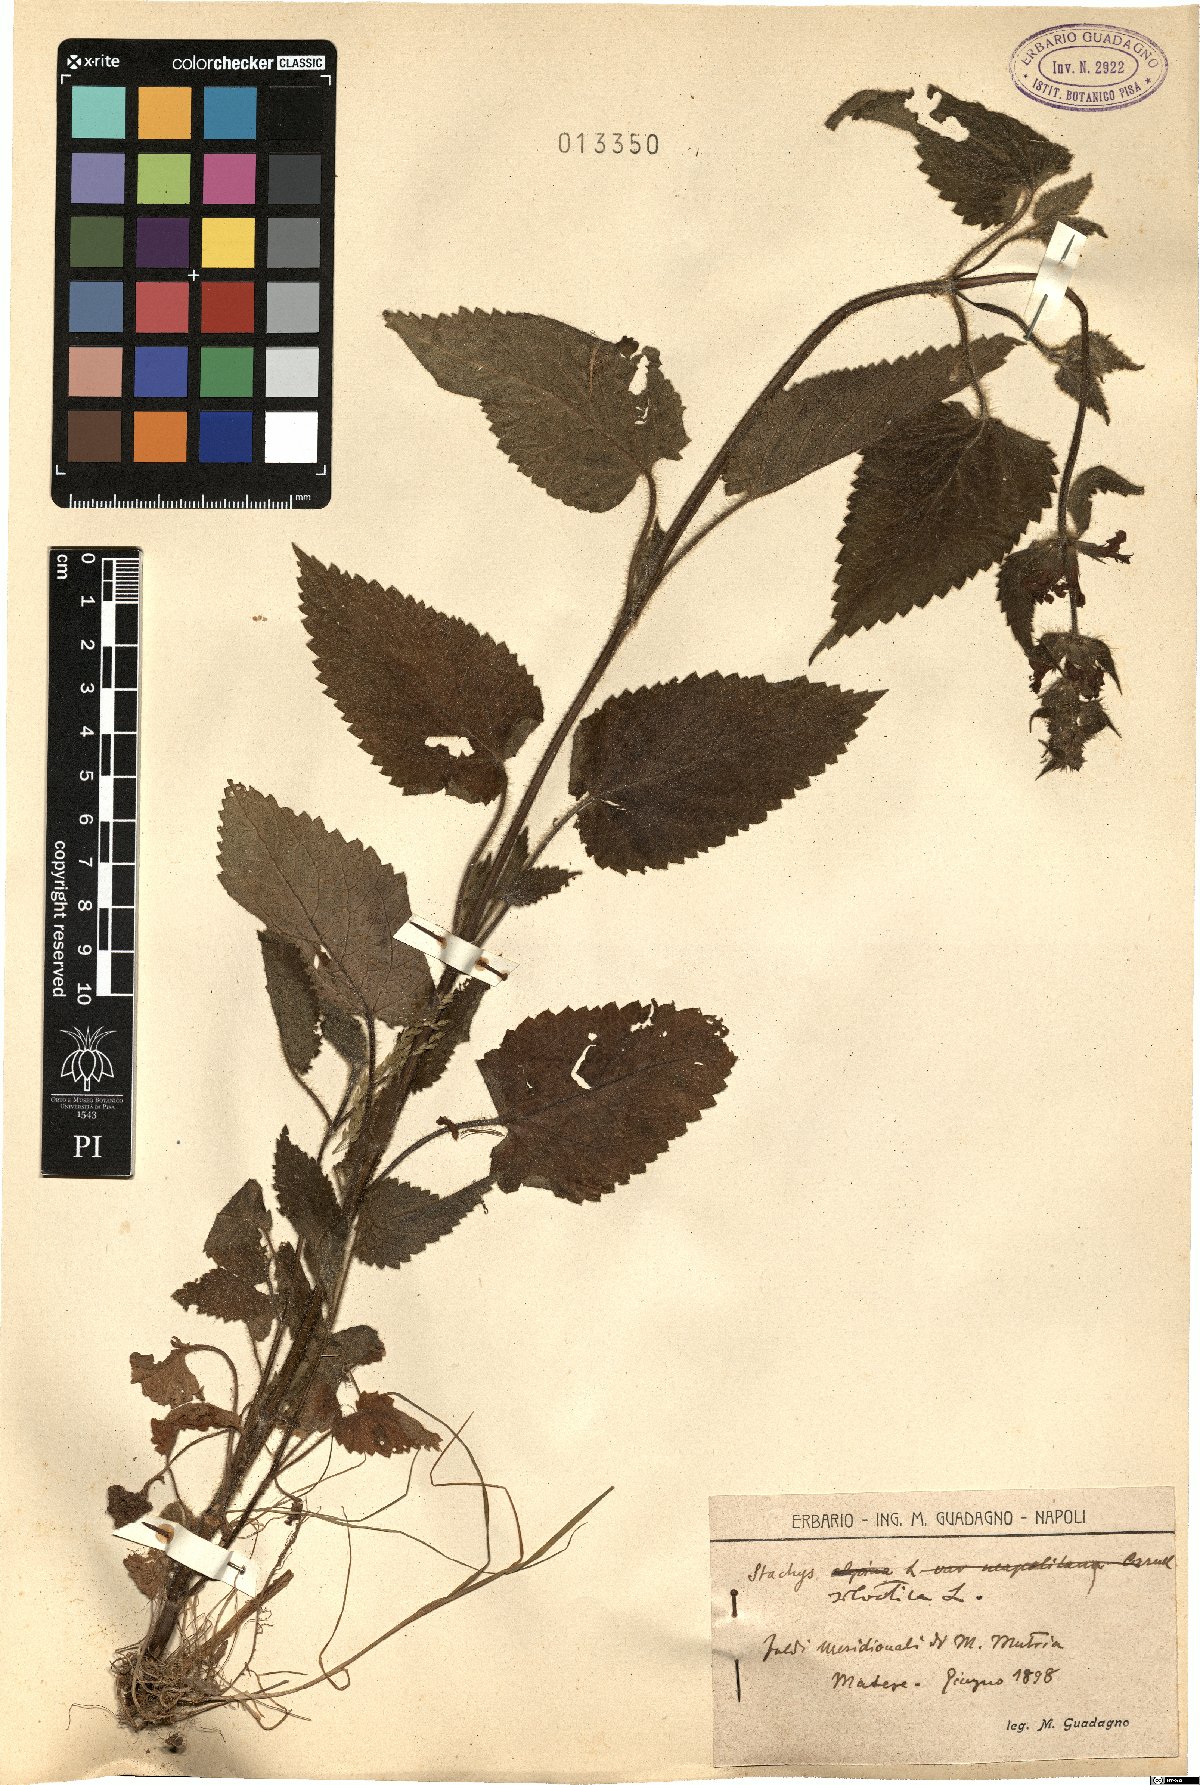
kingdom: Plantae
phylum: Tracheophyta
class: Magnoliopsida
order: Lamiales
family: Lamiaceae
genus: Stachys
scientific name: Stachys sylvatica
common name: Hedge woundwort
